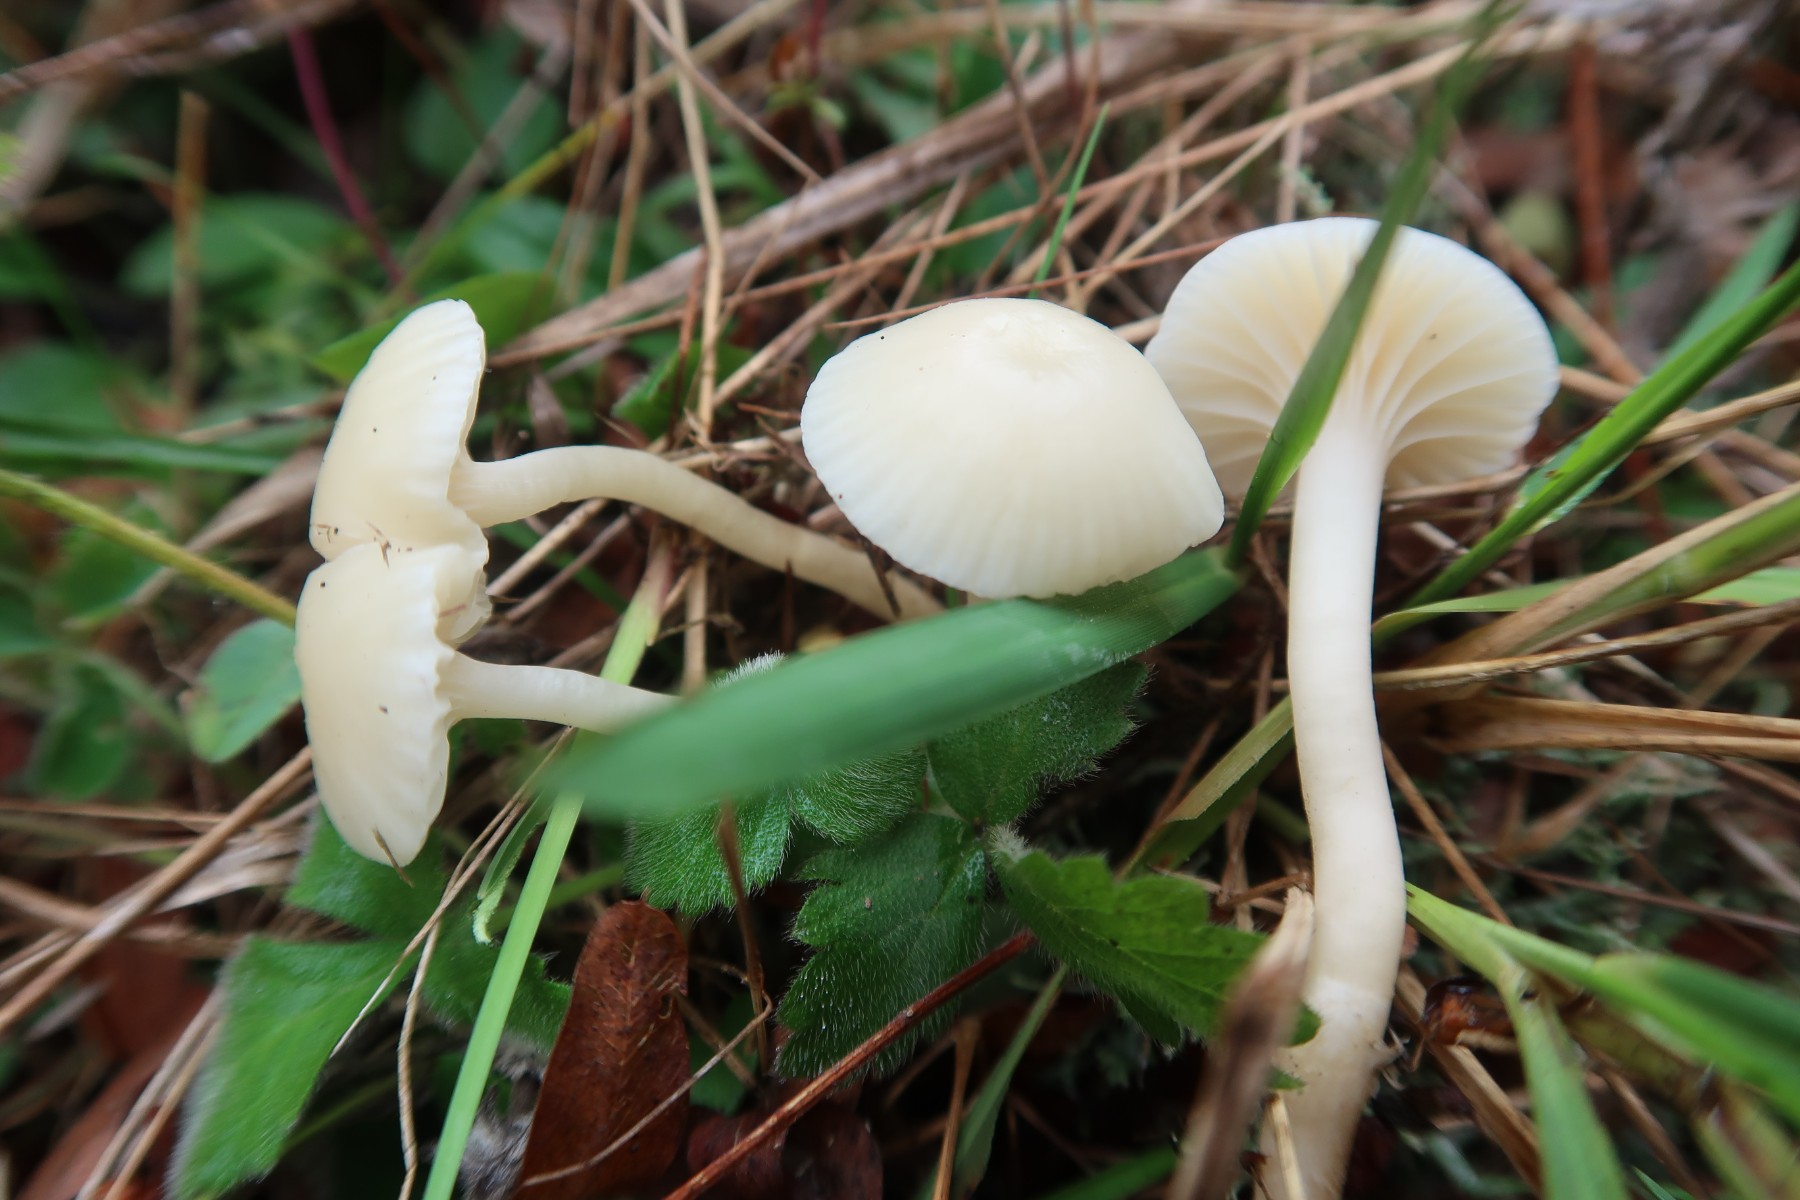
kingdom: Fungi
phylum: Basidiomycota
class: Agaricomycetes
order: Agaricales
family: Hygrophoraceae
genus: Cuphophyllus
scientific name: Cuphophyllus virgineus
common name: snehvid vokshat
